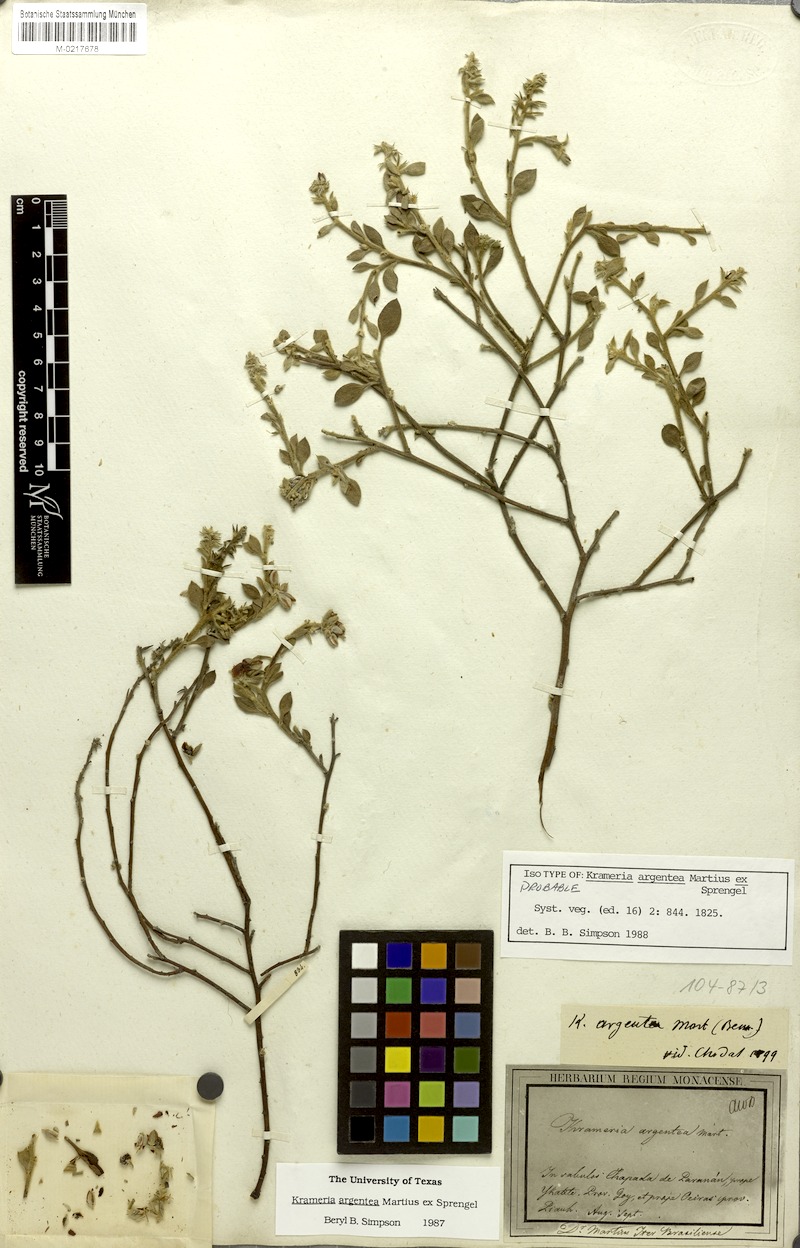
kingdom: Plantae
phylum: Tracheophyta
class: Magnoliopsida
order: Zygophyllales
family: Krameriaceae
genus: Krameria
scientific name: Krameria argentea
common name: Brown-rhatany,-ceará-rhatany
